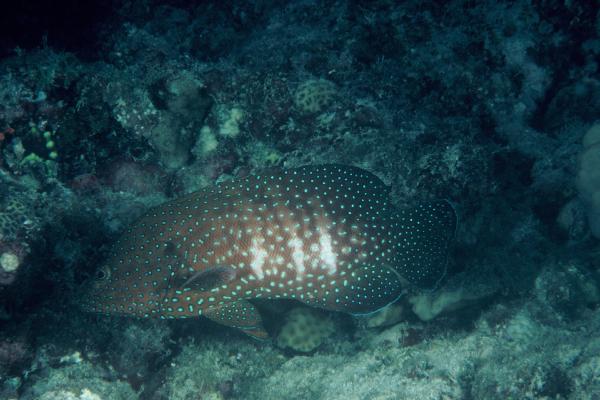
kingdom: Animalia
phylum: Chordata
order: Perciformes
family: Serranidae
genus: Cephalopholis
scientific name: Cephalopholis cyanostigma
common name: Bluespotted hind
